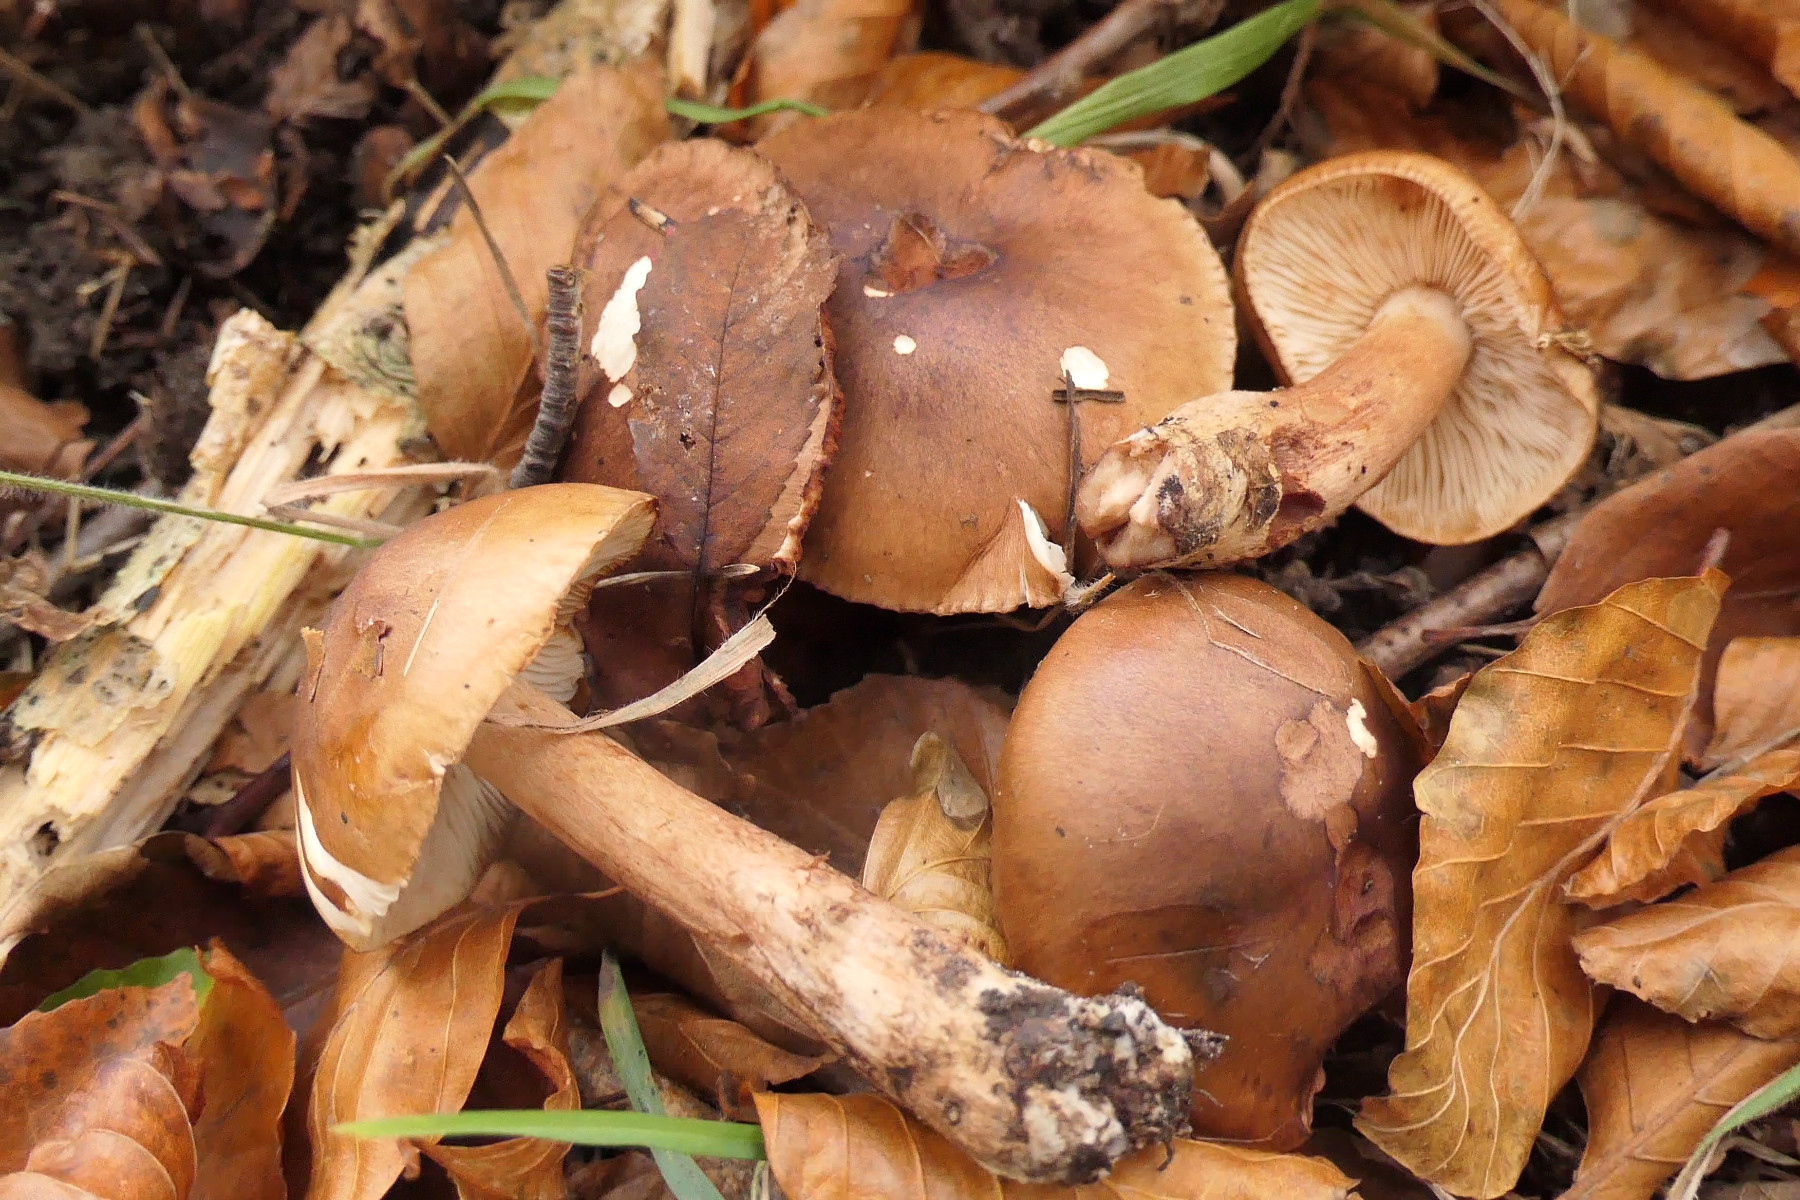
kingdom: Fungi
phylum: Basidiomycota
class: Agaricomycetes
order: Agaricales
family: Tricholomataceae
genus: Tricholoma
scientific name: Tricholoma ustale
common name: sveden ridderhat
